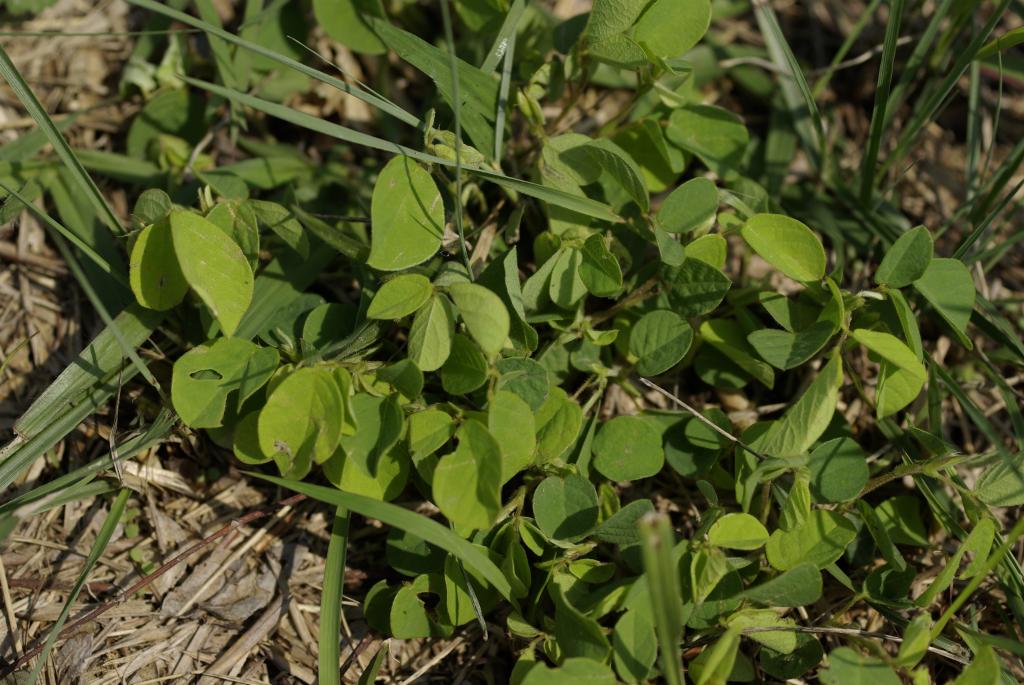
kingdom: Plantae
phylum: Tracheophyta
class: Magnoliopsida
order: Fabales
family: Fabaceae
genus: Pycnospora
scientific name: Pycnospora lutescens
